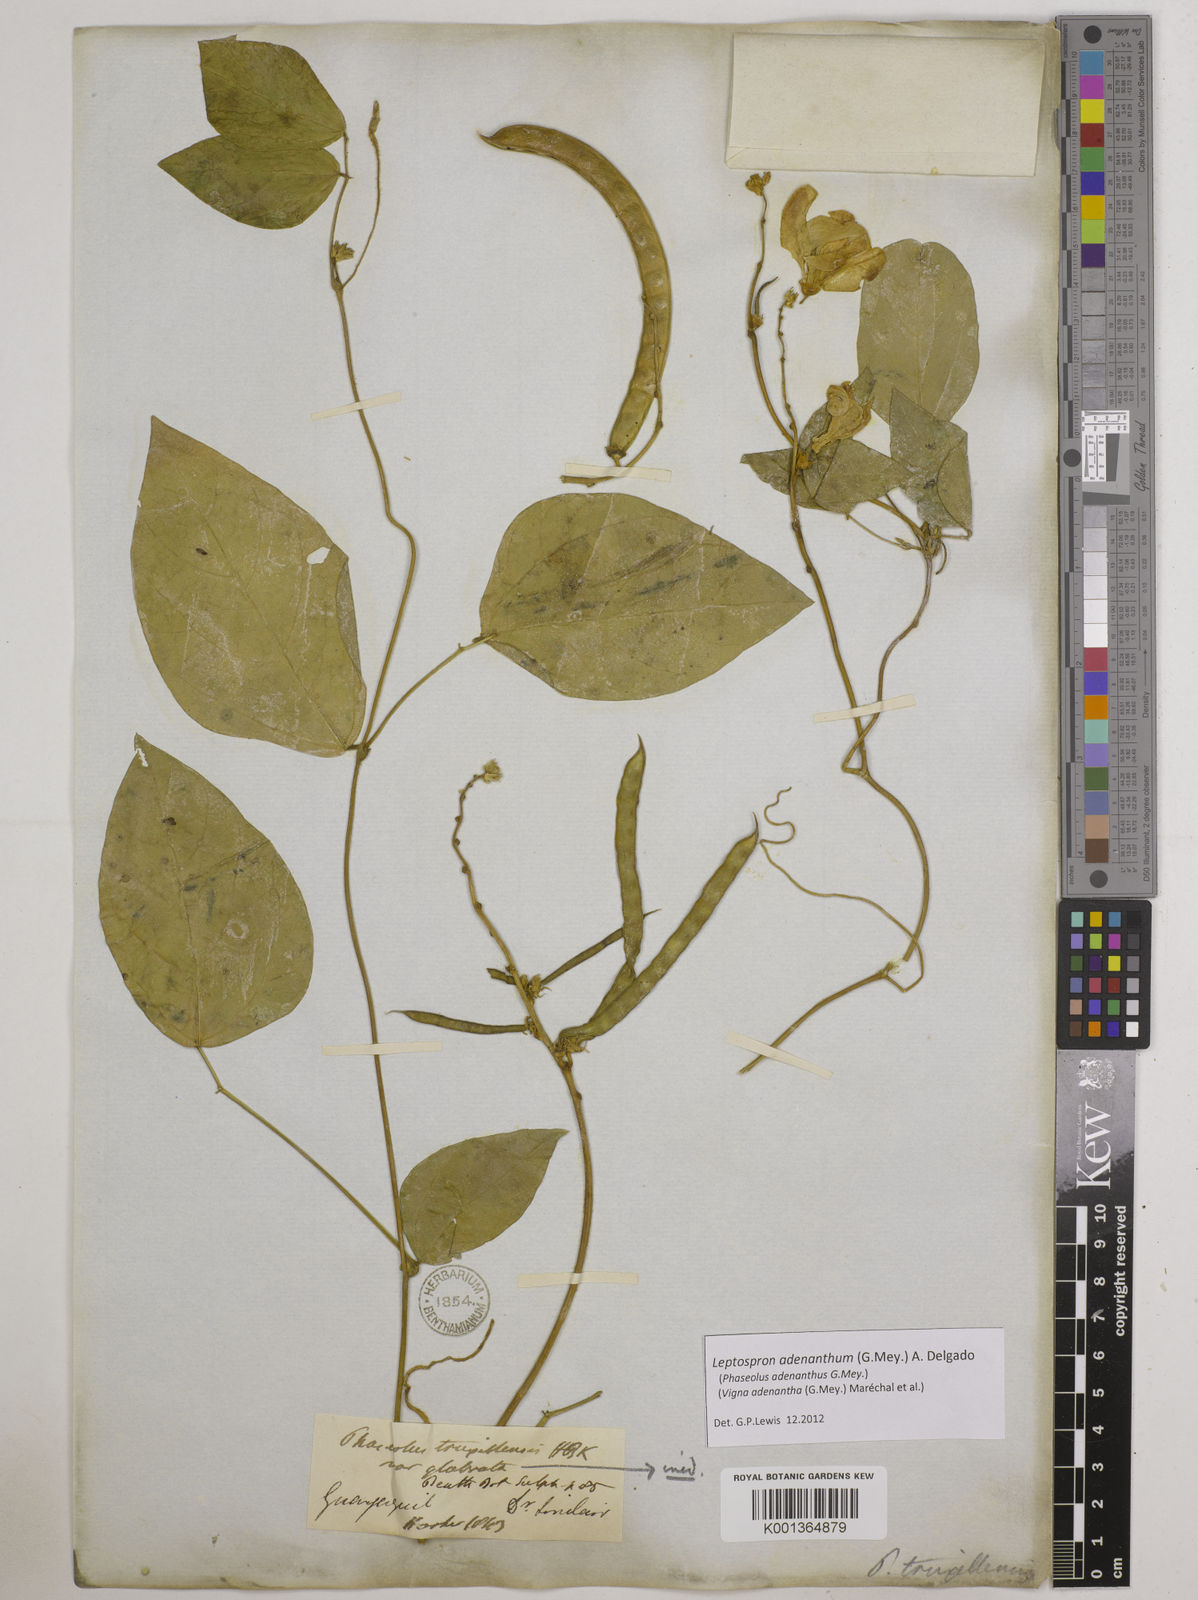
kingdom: Plantae
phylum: Tracheophyta
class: Magnoliopsida
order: Fabales
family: Fabaceae
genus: Leptospron
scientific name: Leptospron adenanthum
